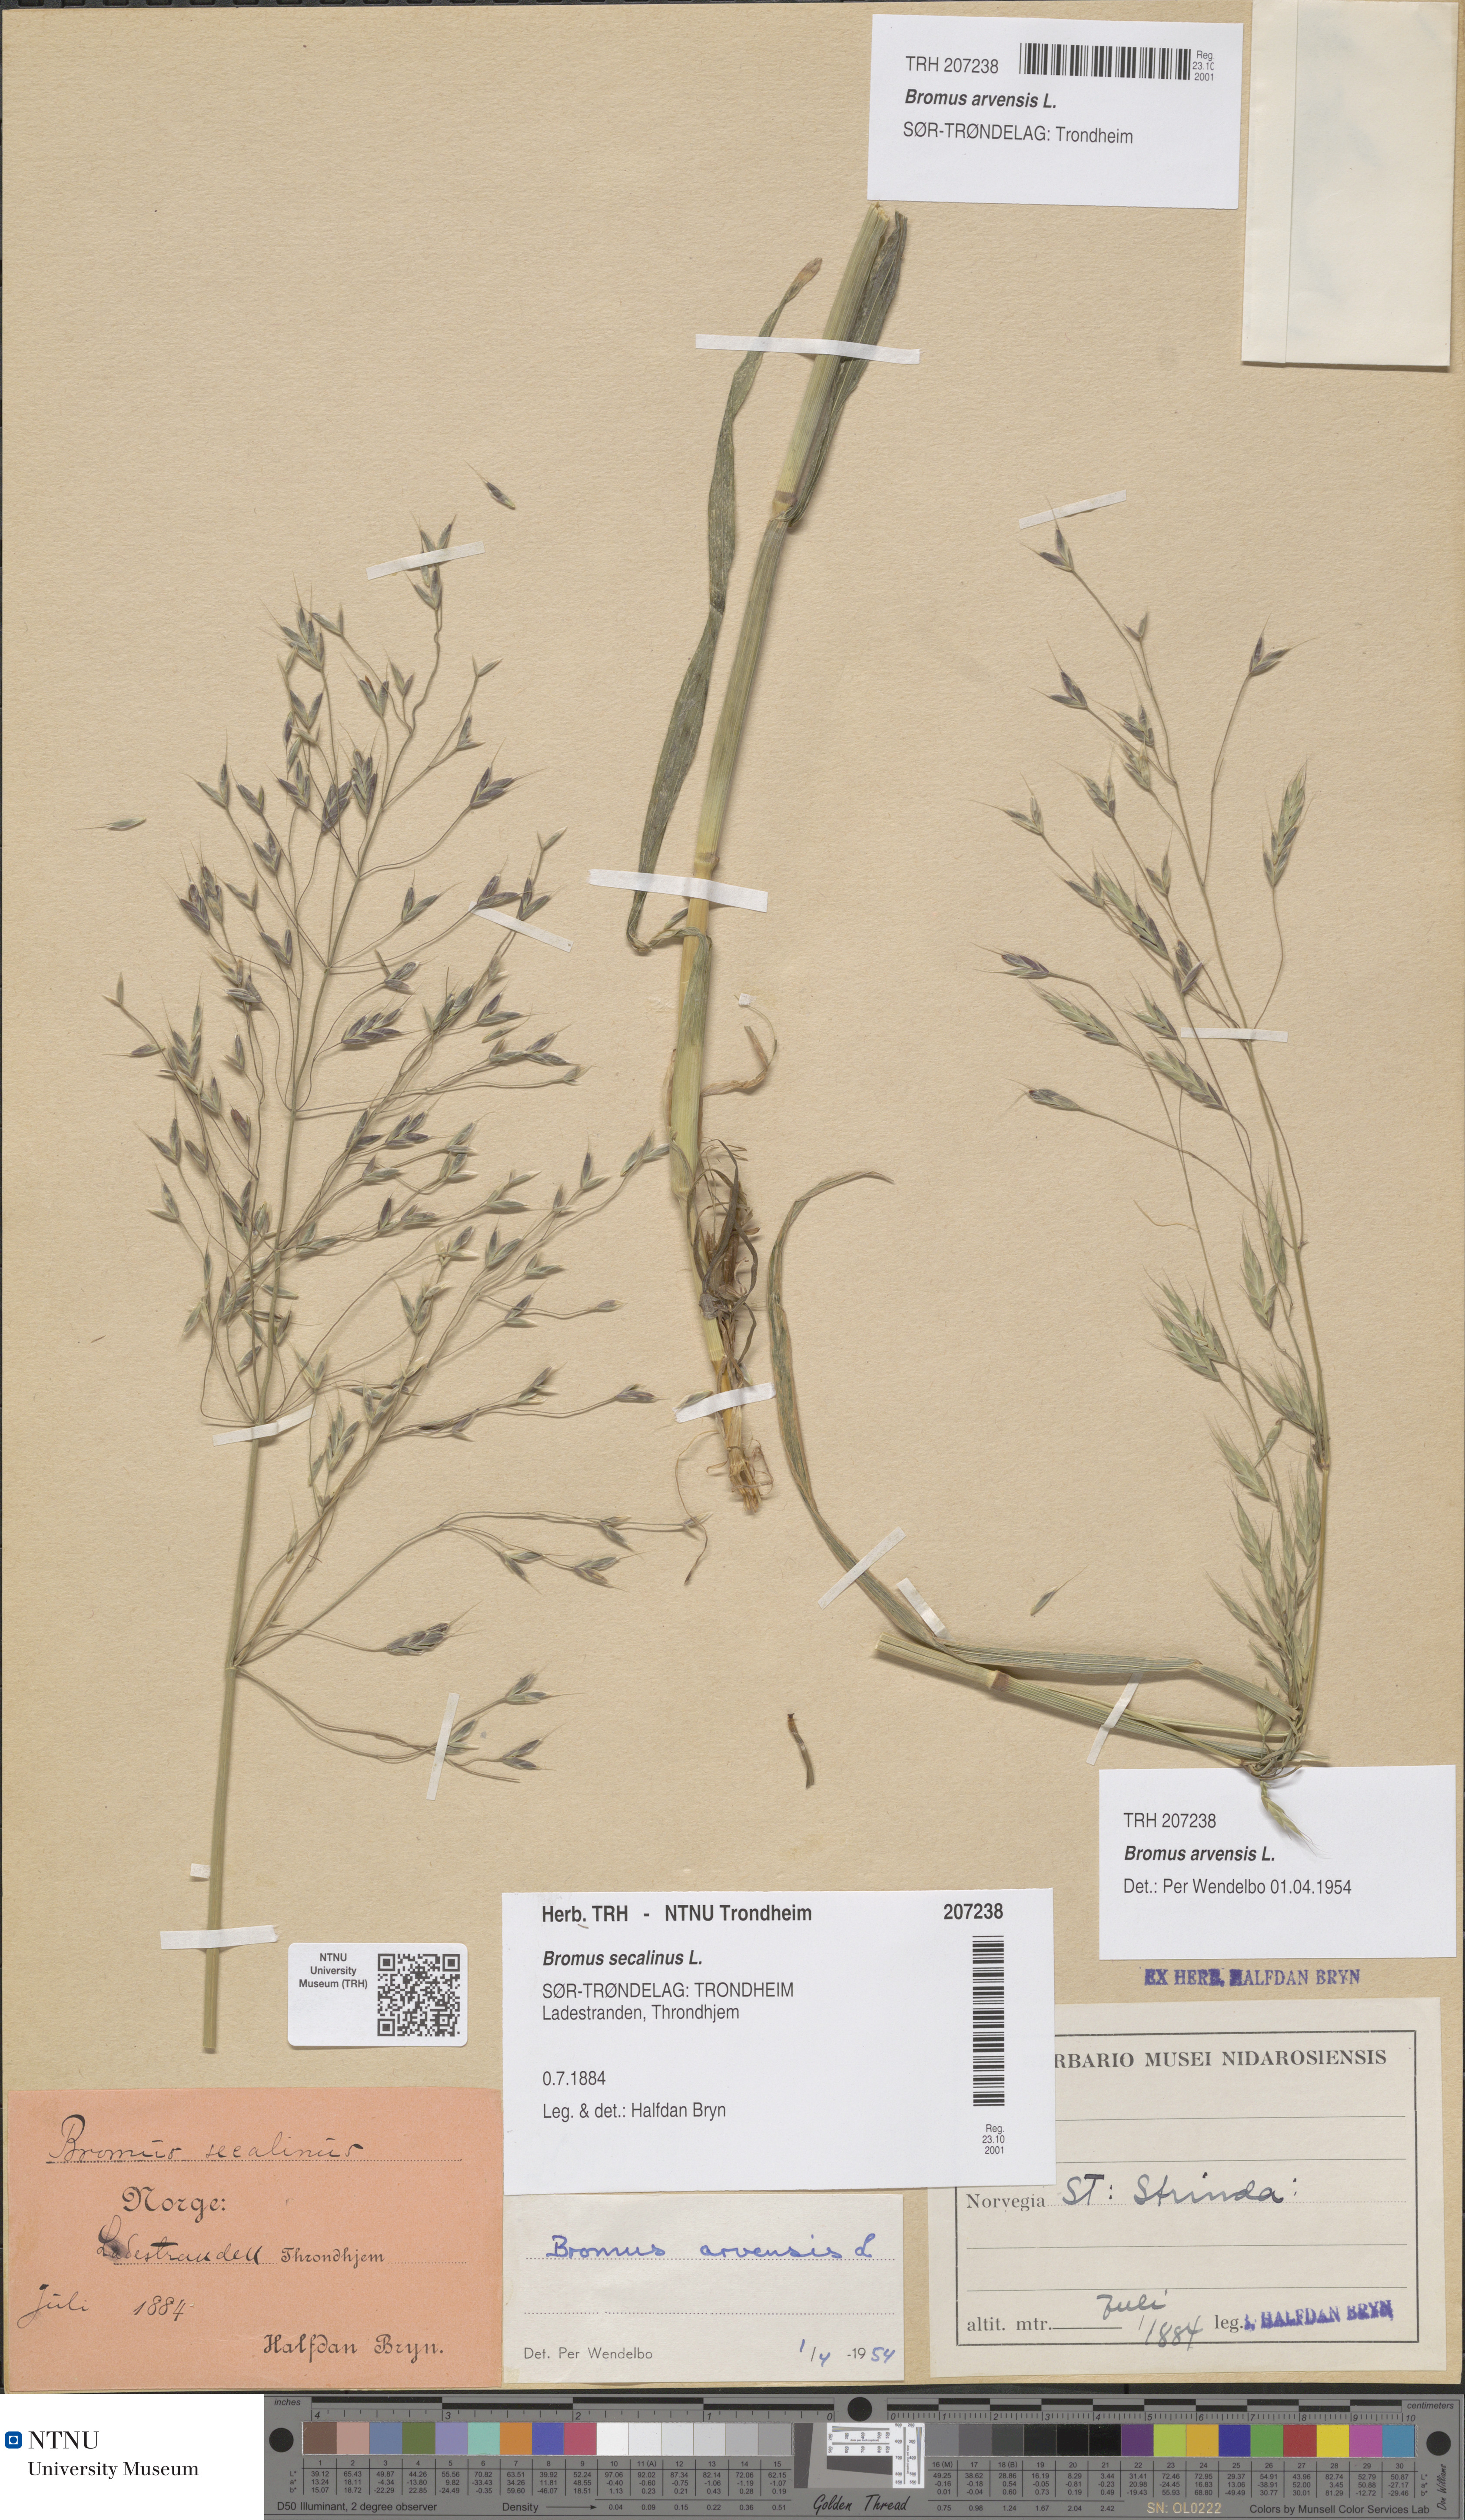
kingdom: Plantae
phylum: Tracheophyta
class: Liliopsida
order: Poales
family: Poaceae
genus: Bromus
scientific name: Bromus arvensis
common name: Field brome
